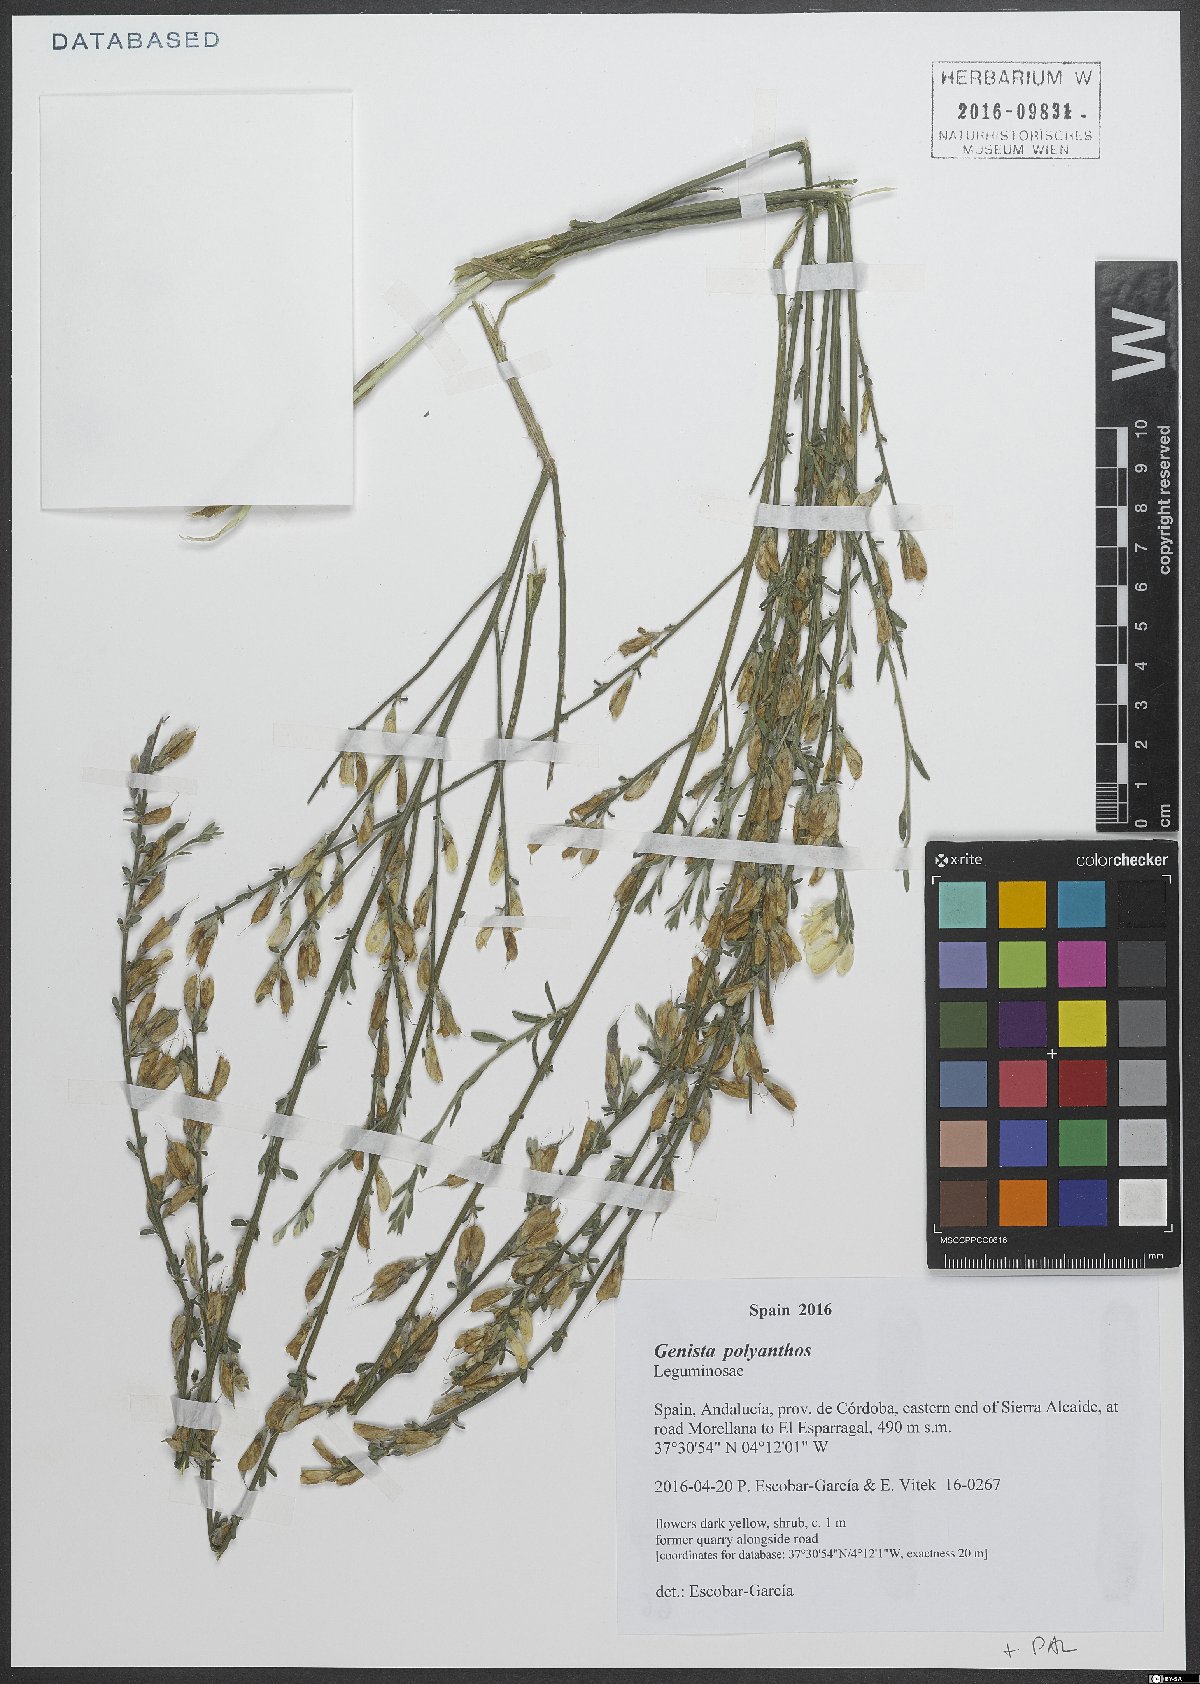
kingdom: Plantae
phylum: Tracheophyta
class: Magnoliopsida
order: Fabales
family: Fabaceae
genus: Genista
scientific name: Genista polyanthos
